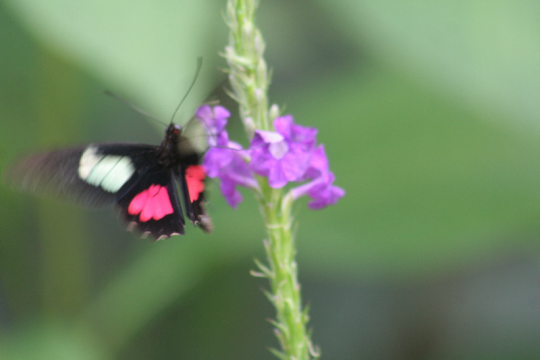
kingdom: Animalia
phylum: Arthropoda
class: Insecta
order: Lepidoptera
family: Papilionidae
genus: Parides
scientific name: Parides eurimedes
